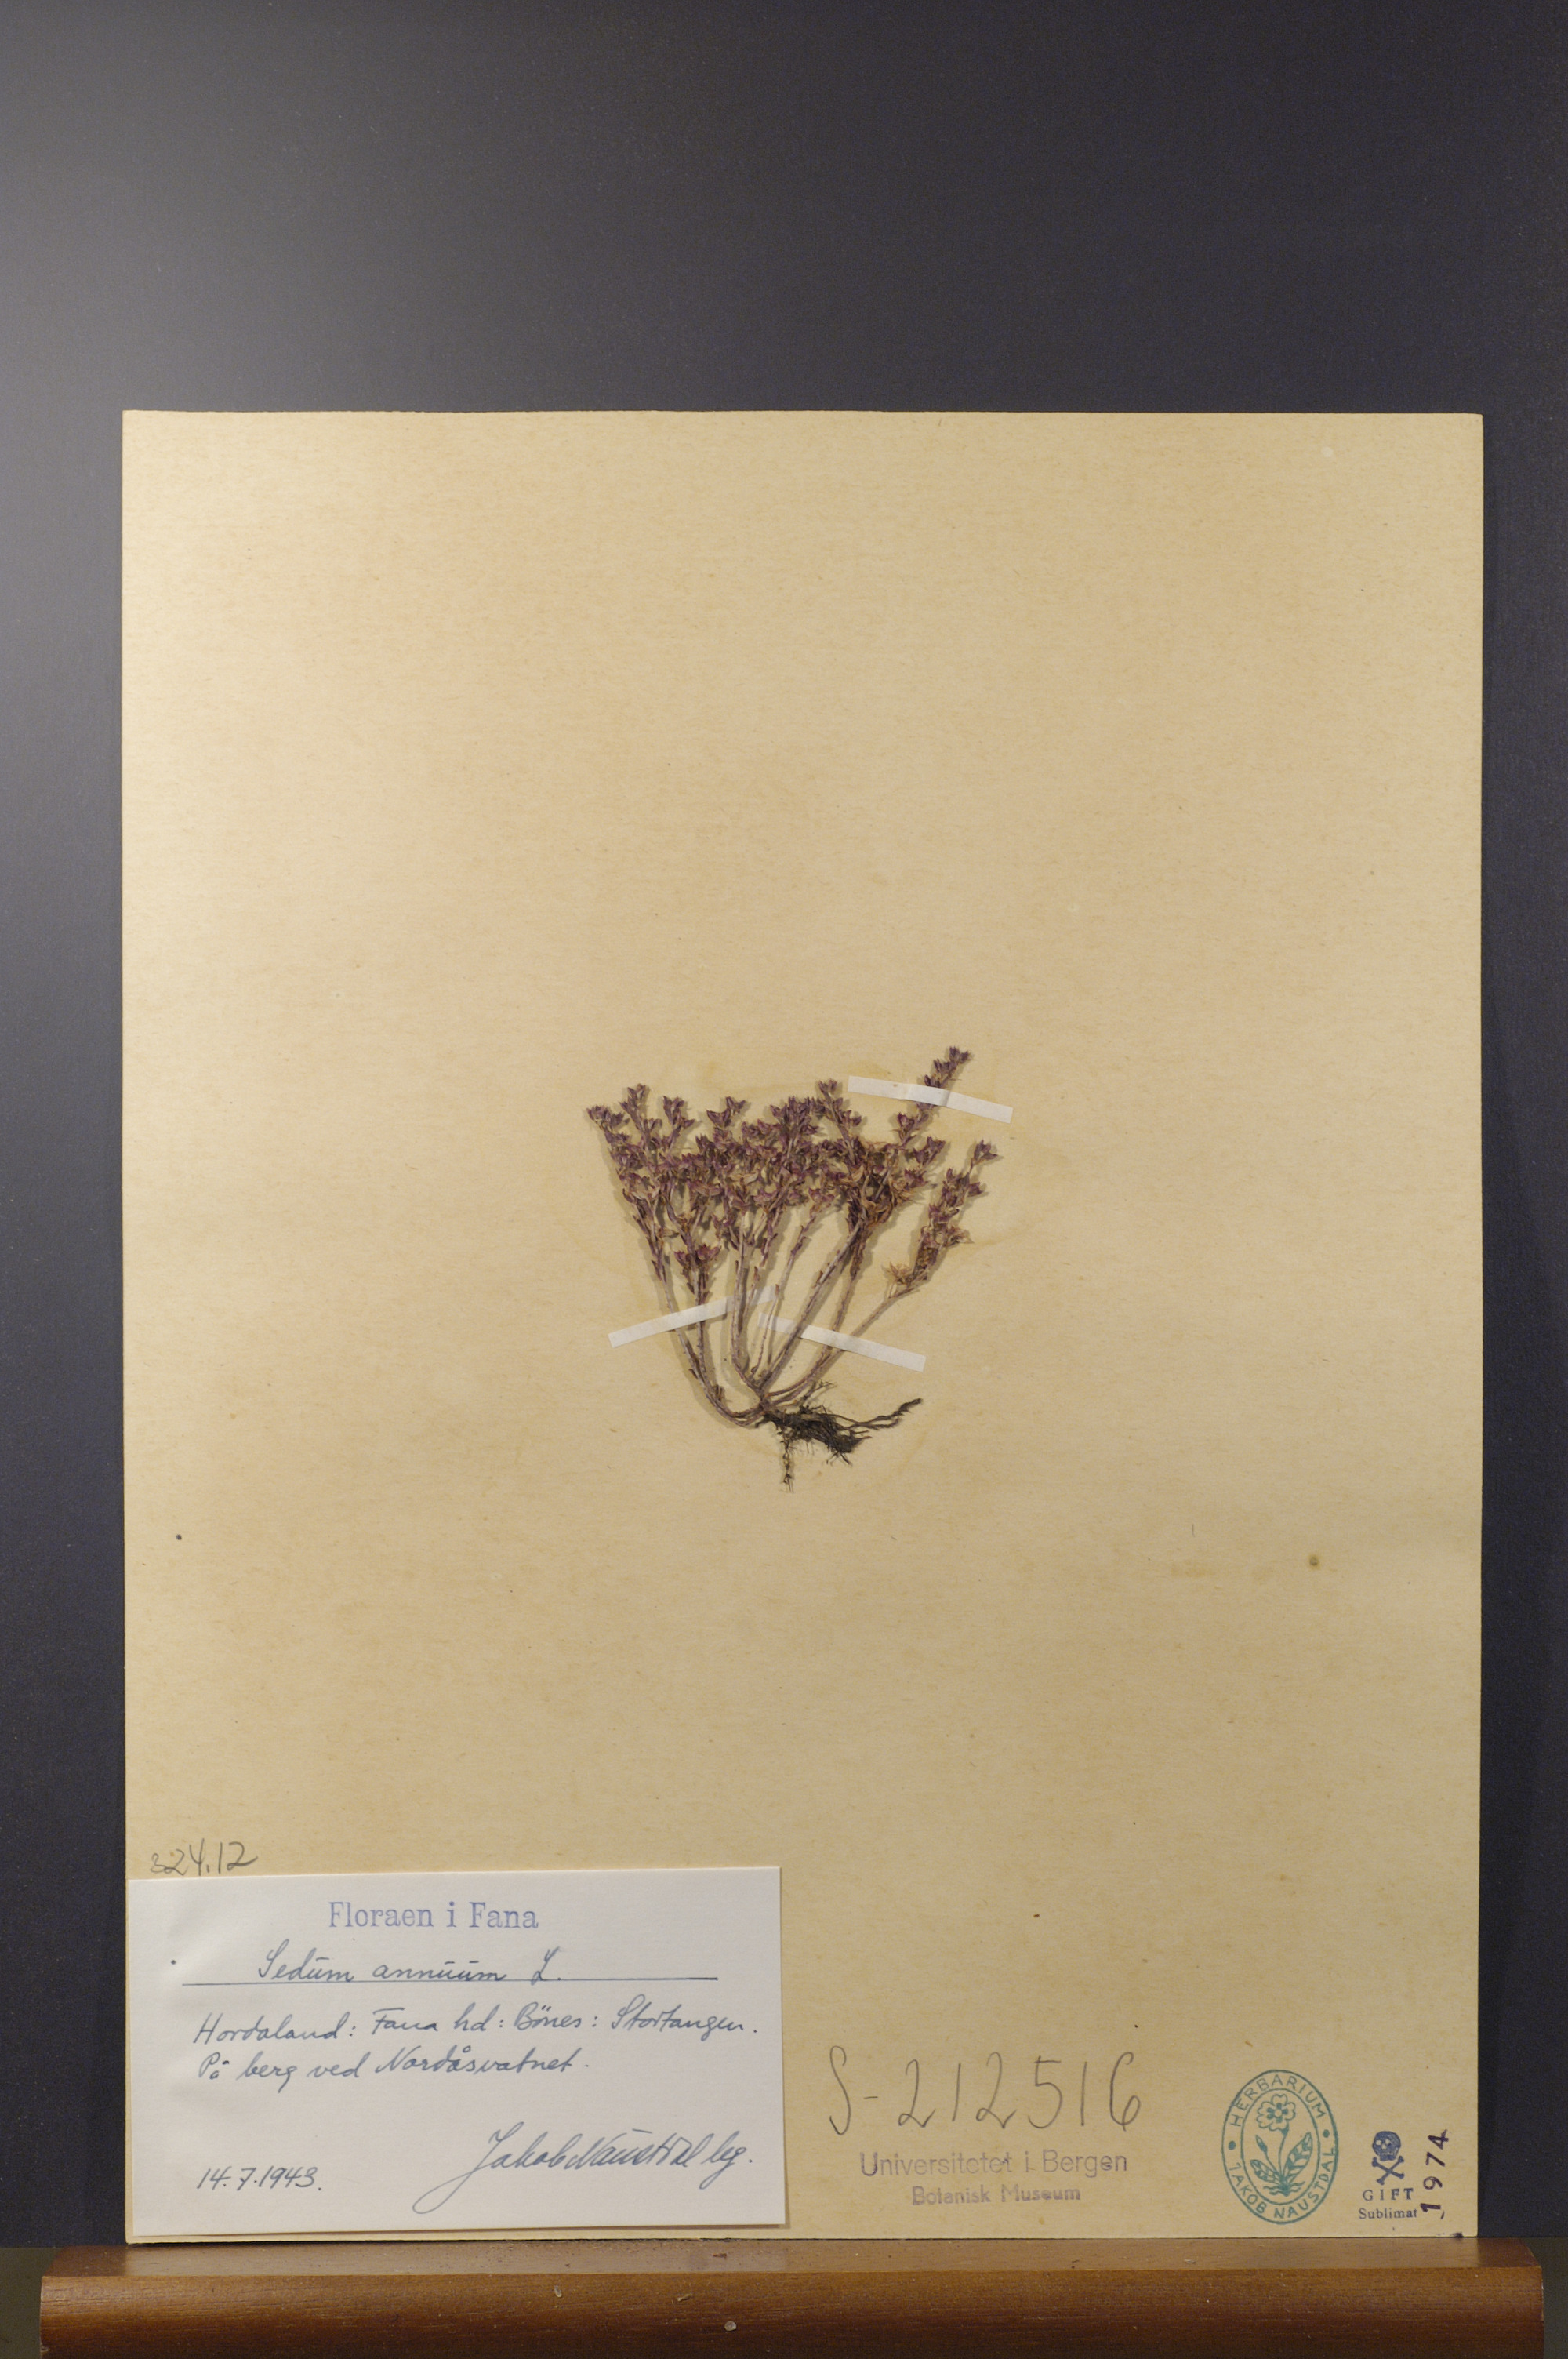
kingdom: Plantae
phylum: Tracheophyta
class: Magnoliopsida
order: Saxifragales
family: Crassulaceae
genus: Sedum
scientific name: Sedum annuum
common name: Annual stonecrop
